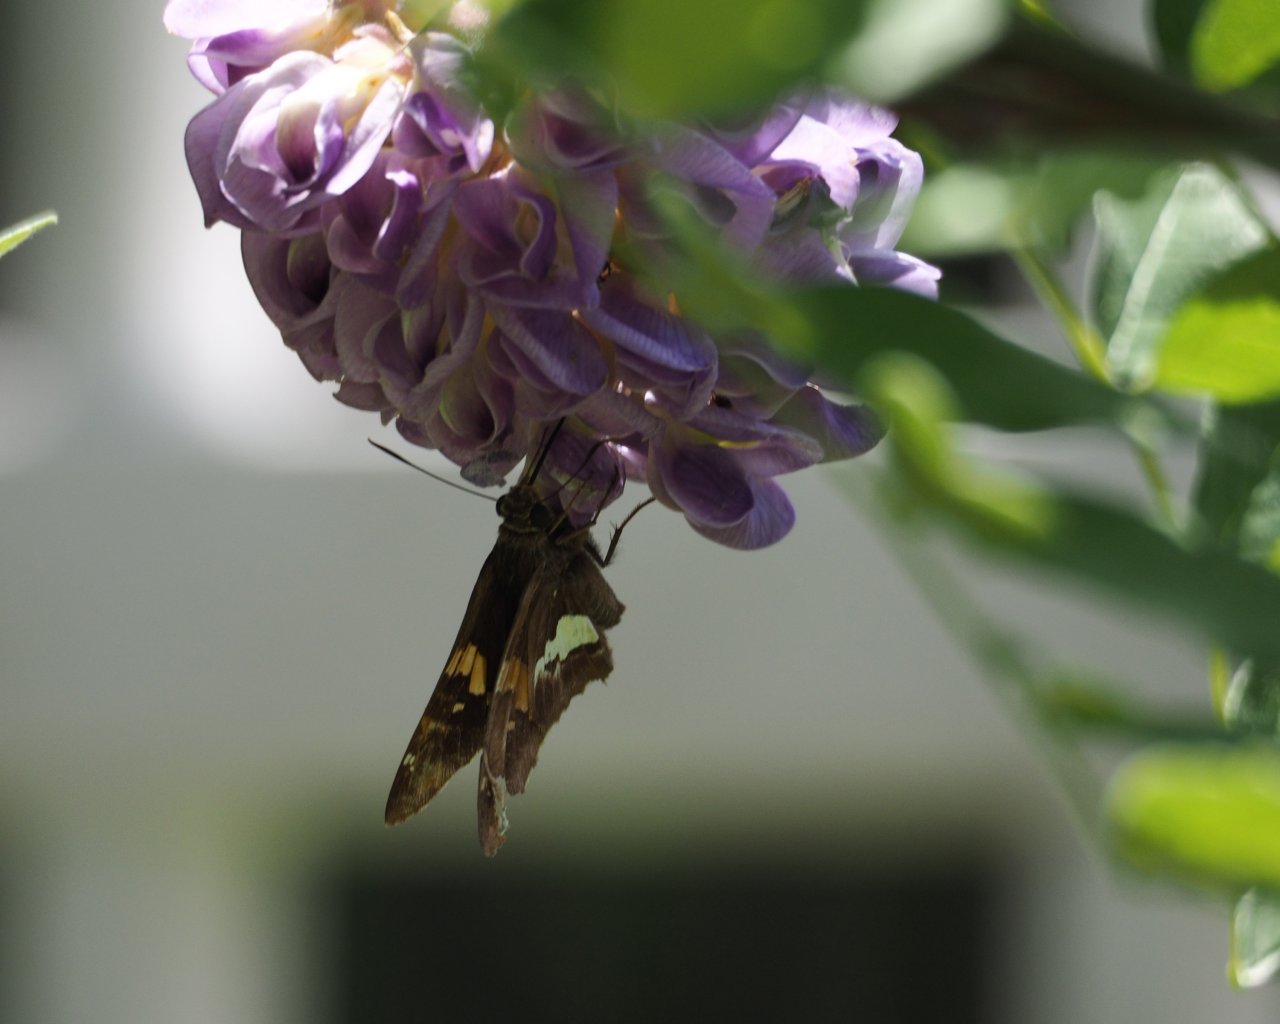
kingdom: Animalia
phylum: Arthropoda
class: Insecta
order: Lepidoptera
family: Hesperiidae
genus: Epargyreus
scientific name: Epargyreus clarus
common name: Silver-spotted Skipper
